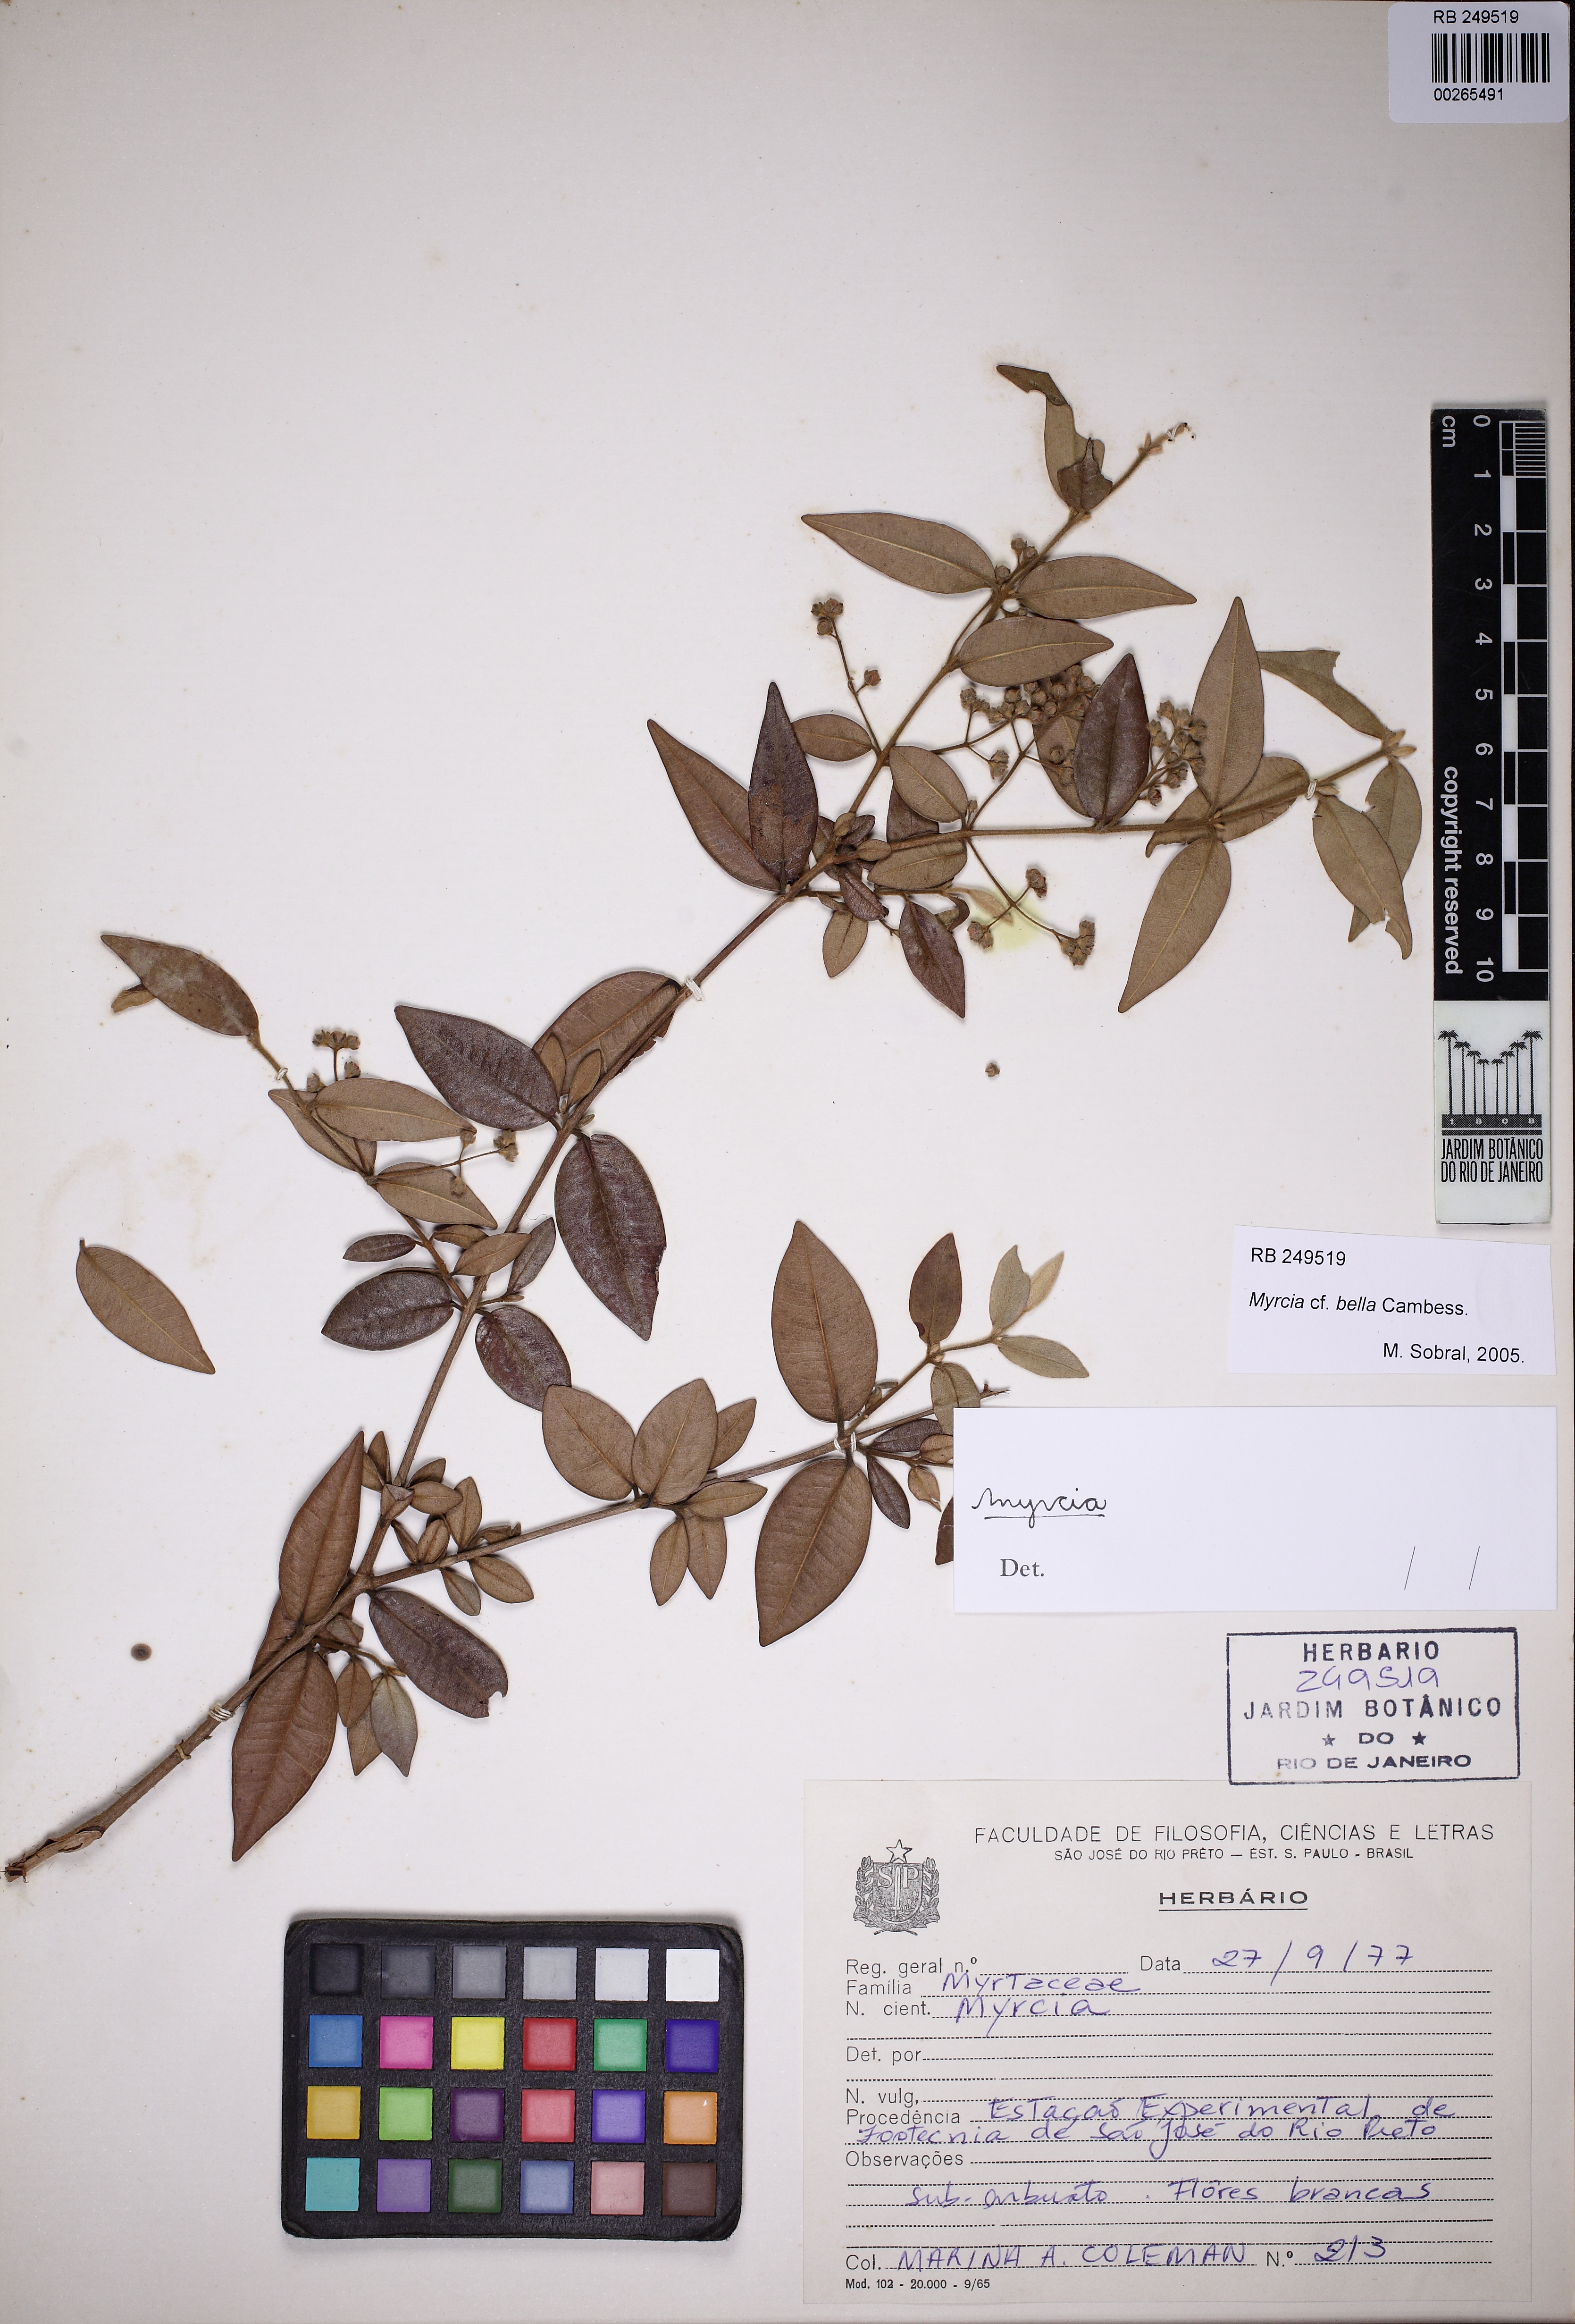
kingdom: Plantae
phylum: Tracheophyta
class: Magnoliopsida
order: Myrtales
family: Myrtaceae
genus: Myrcia
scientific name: Myrcia bella
